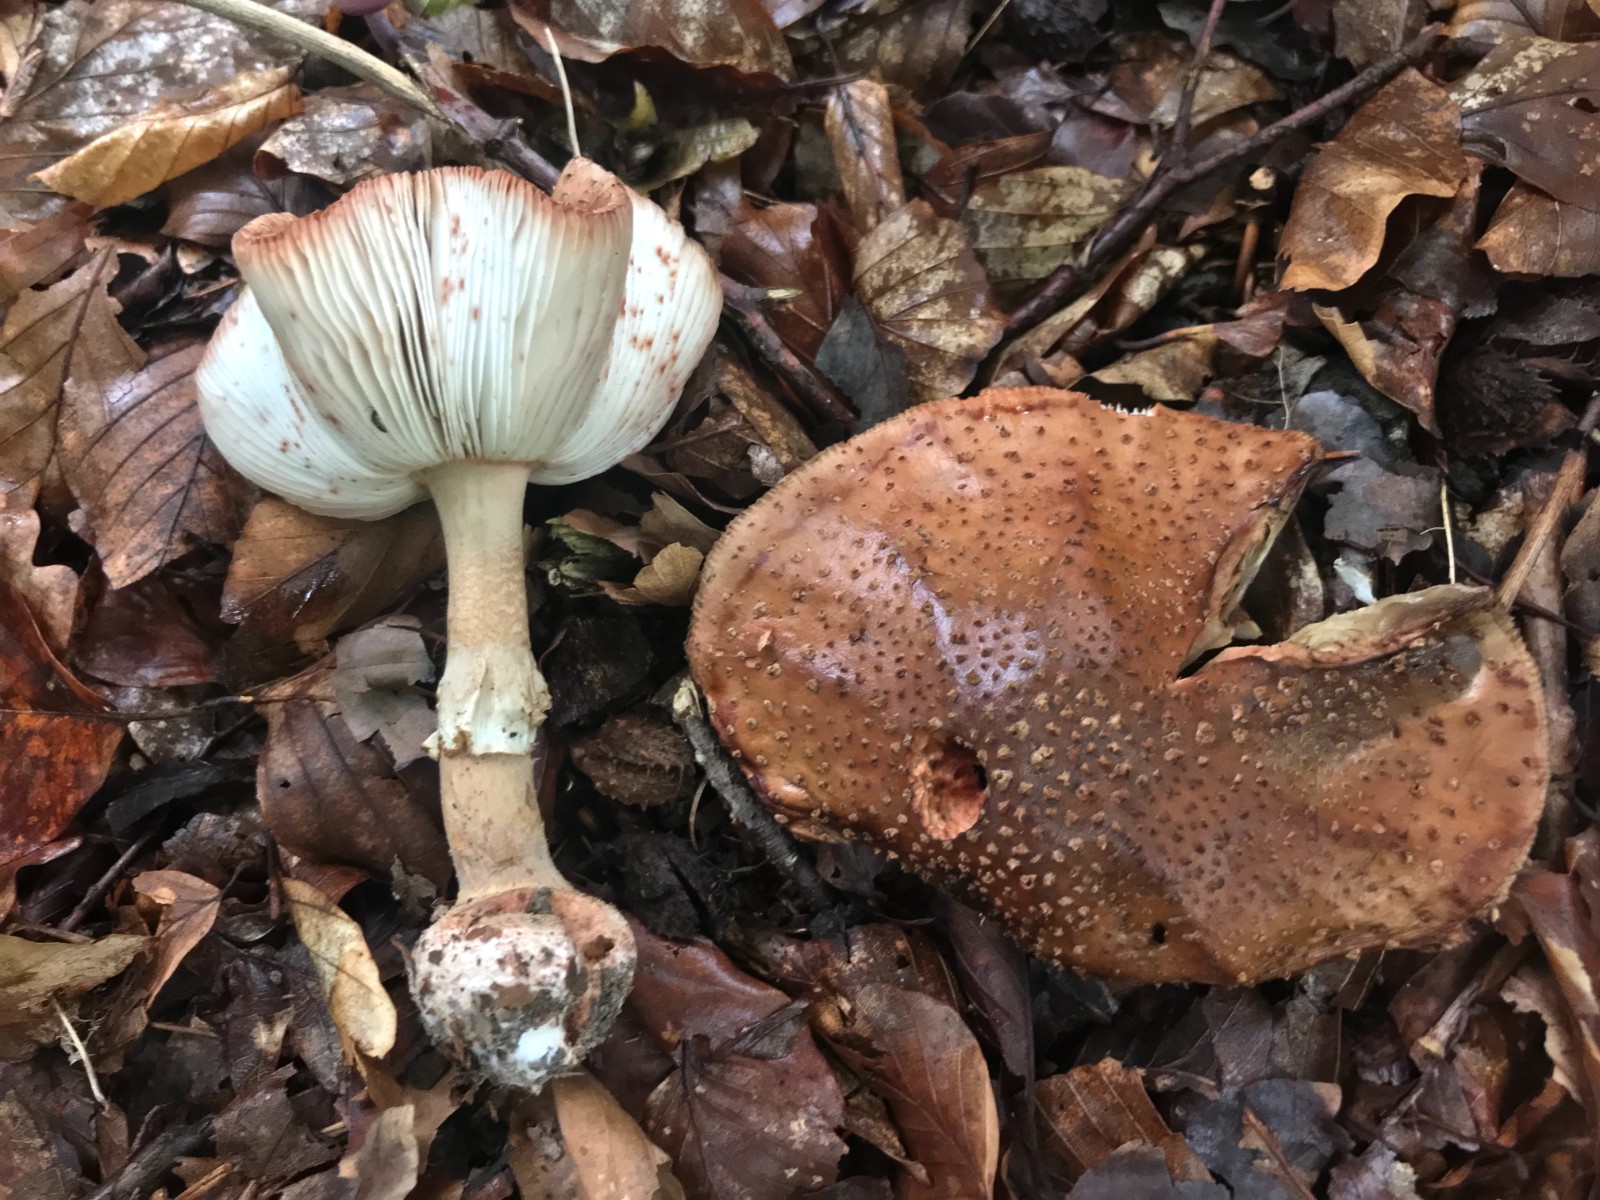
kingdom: Fungi
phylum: Basidiomycota
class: Agaricomycetes
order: Agaricales
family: Amanitaceae
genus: Amanita
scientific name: Amanita rubescens
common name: rødmende fluesvamp
